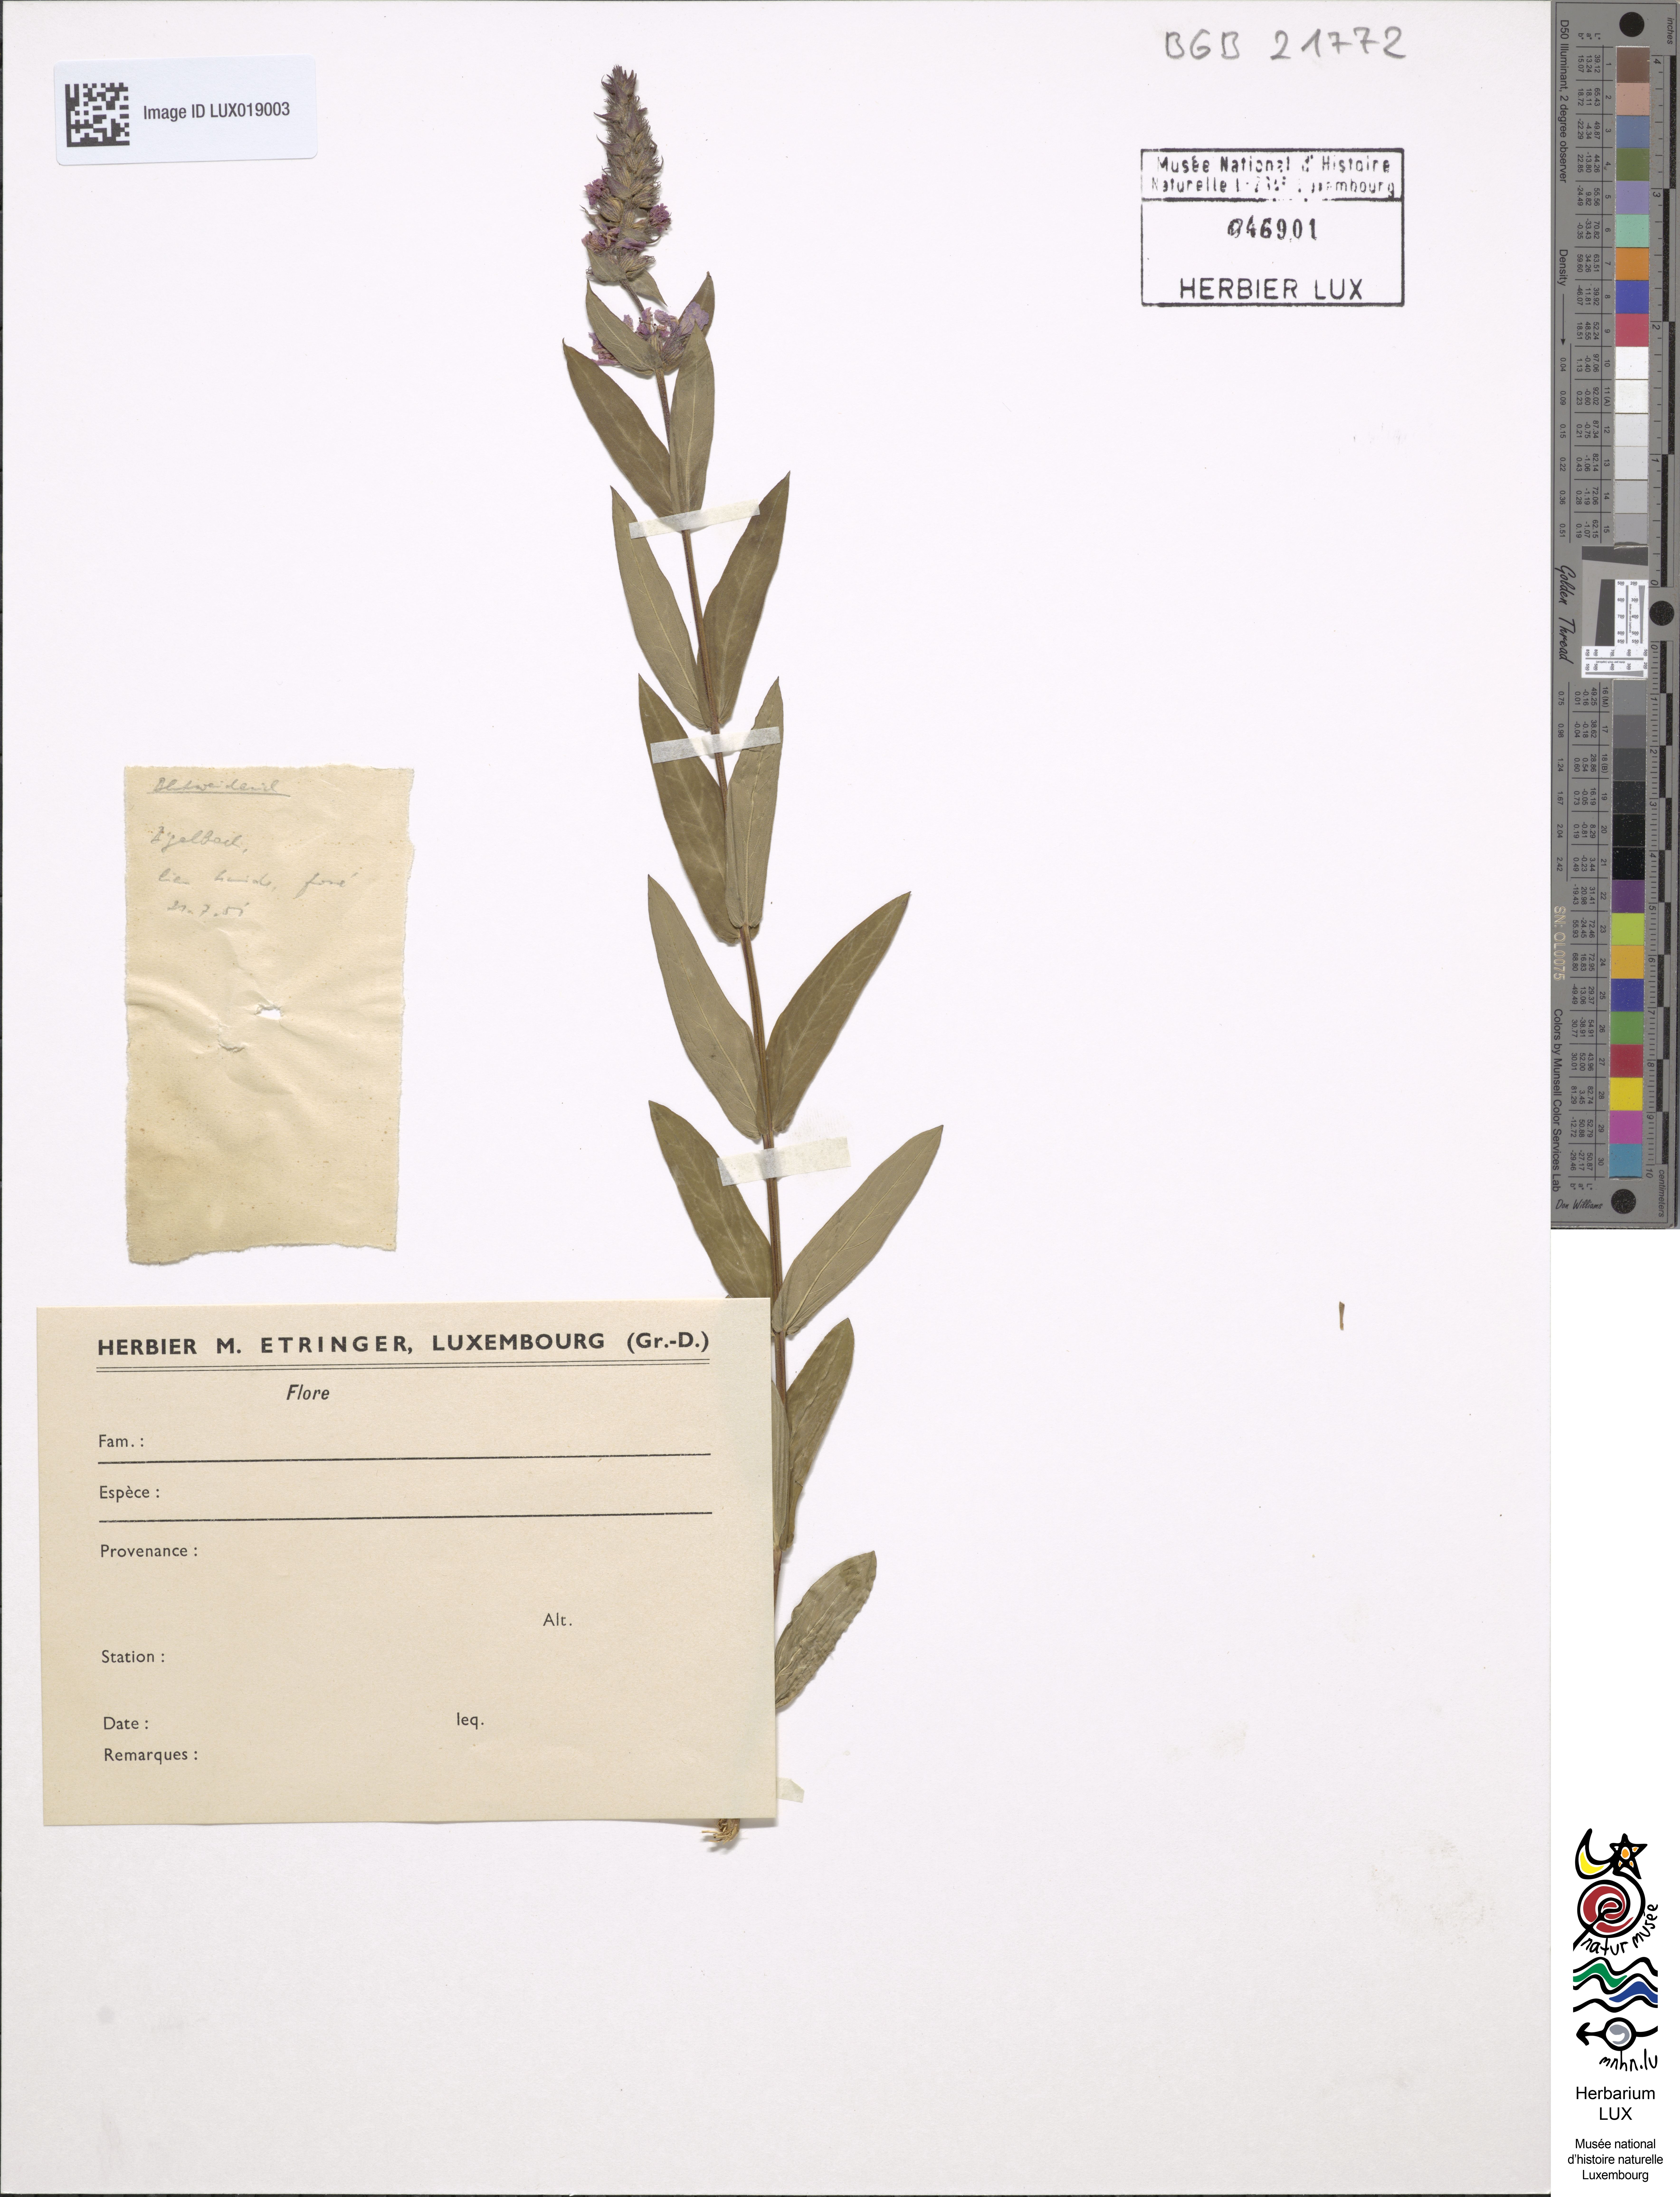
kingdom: Plantae
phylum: Tracheophyta
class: Magnoliopsida
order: Myrtales
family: Lythraceae
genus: Lythrum
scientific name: Lythrum salicaria
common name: Purple loosestrife
